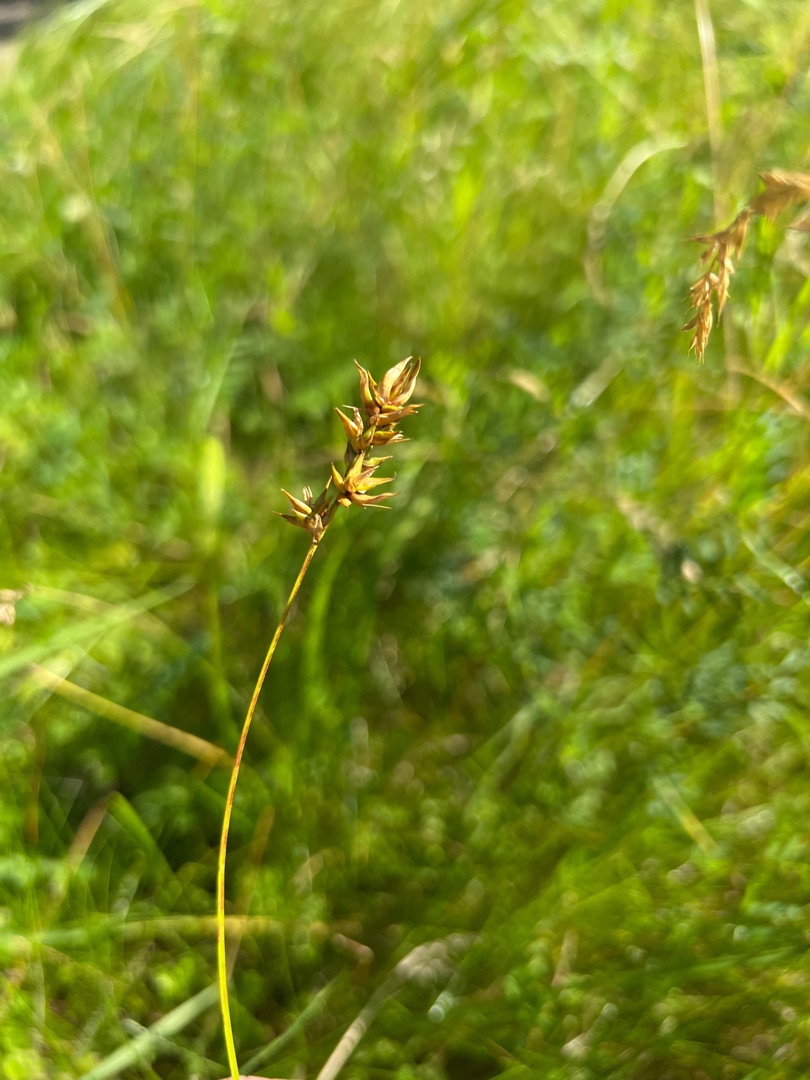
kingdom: Plantae
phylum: Tracheophyta
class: Liliopsida
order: Poales
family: Cyperaceae
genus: Carex
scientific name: Carex spicata
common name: Spidskapslet star
